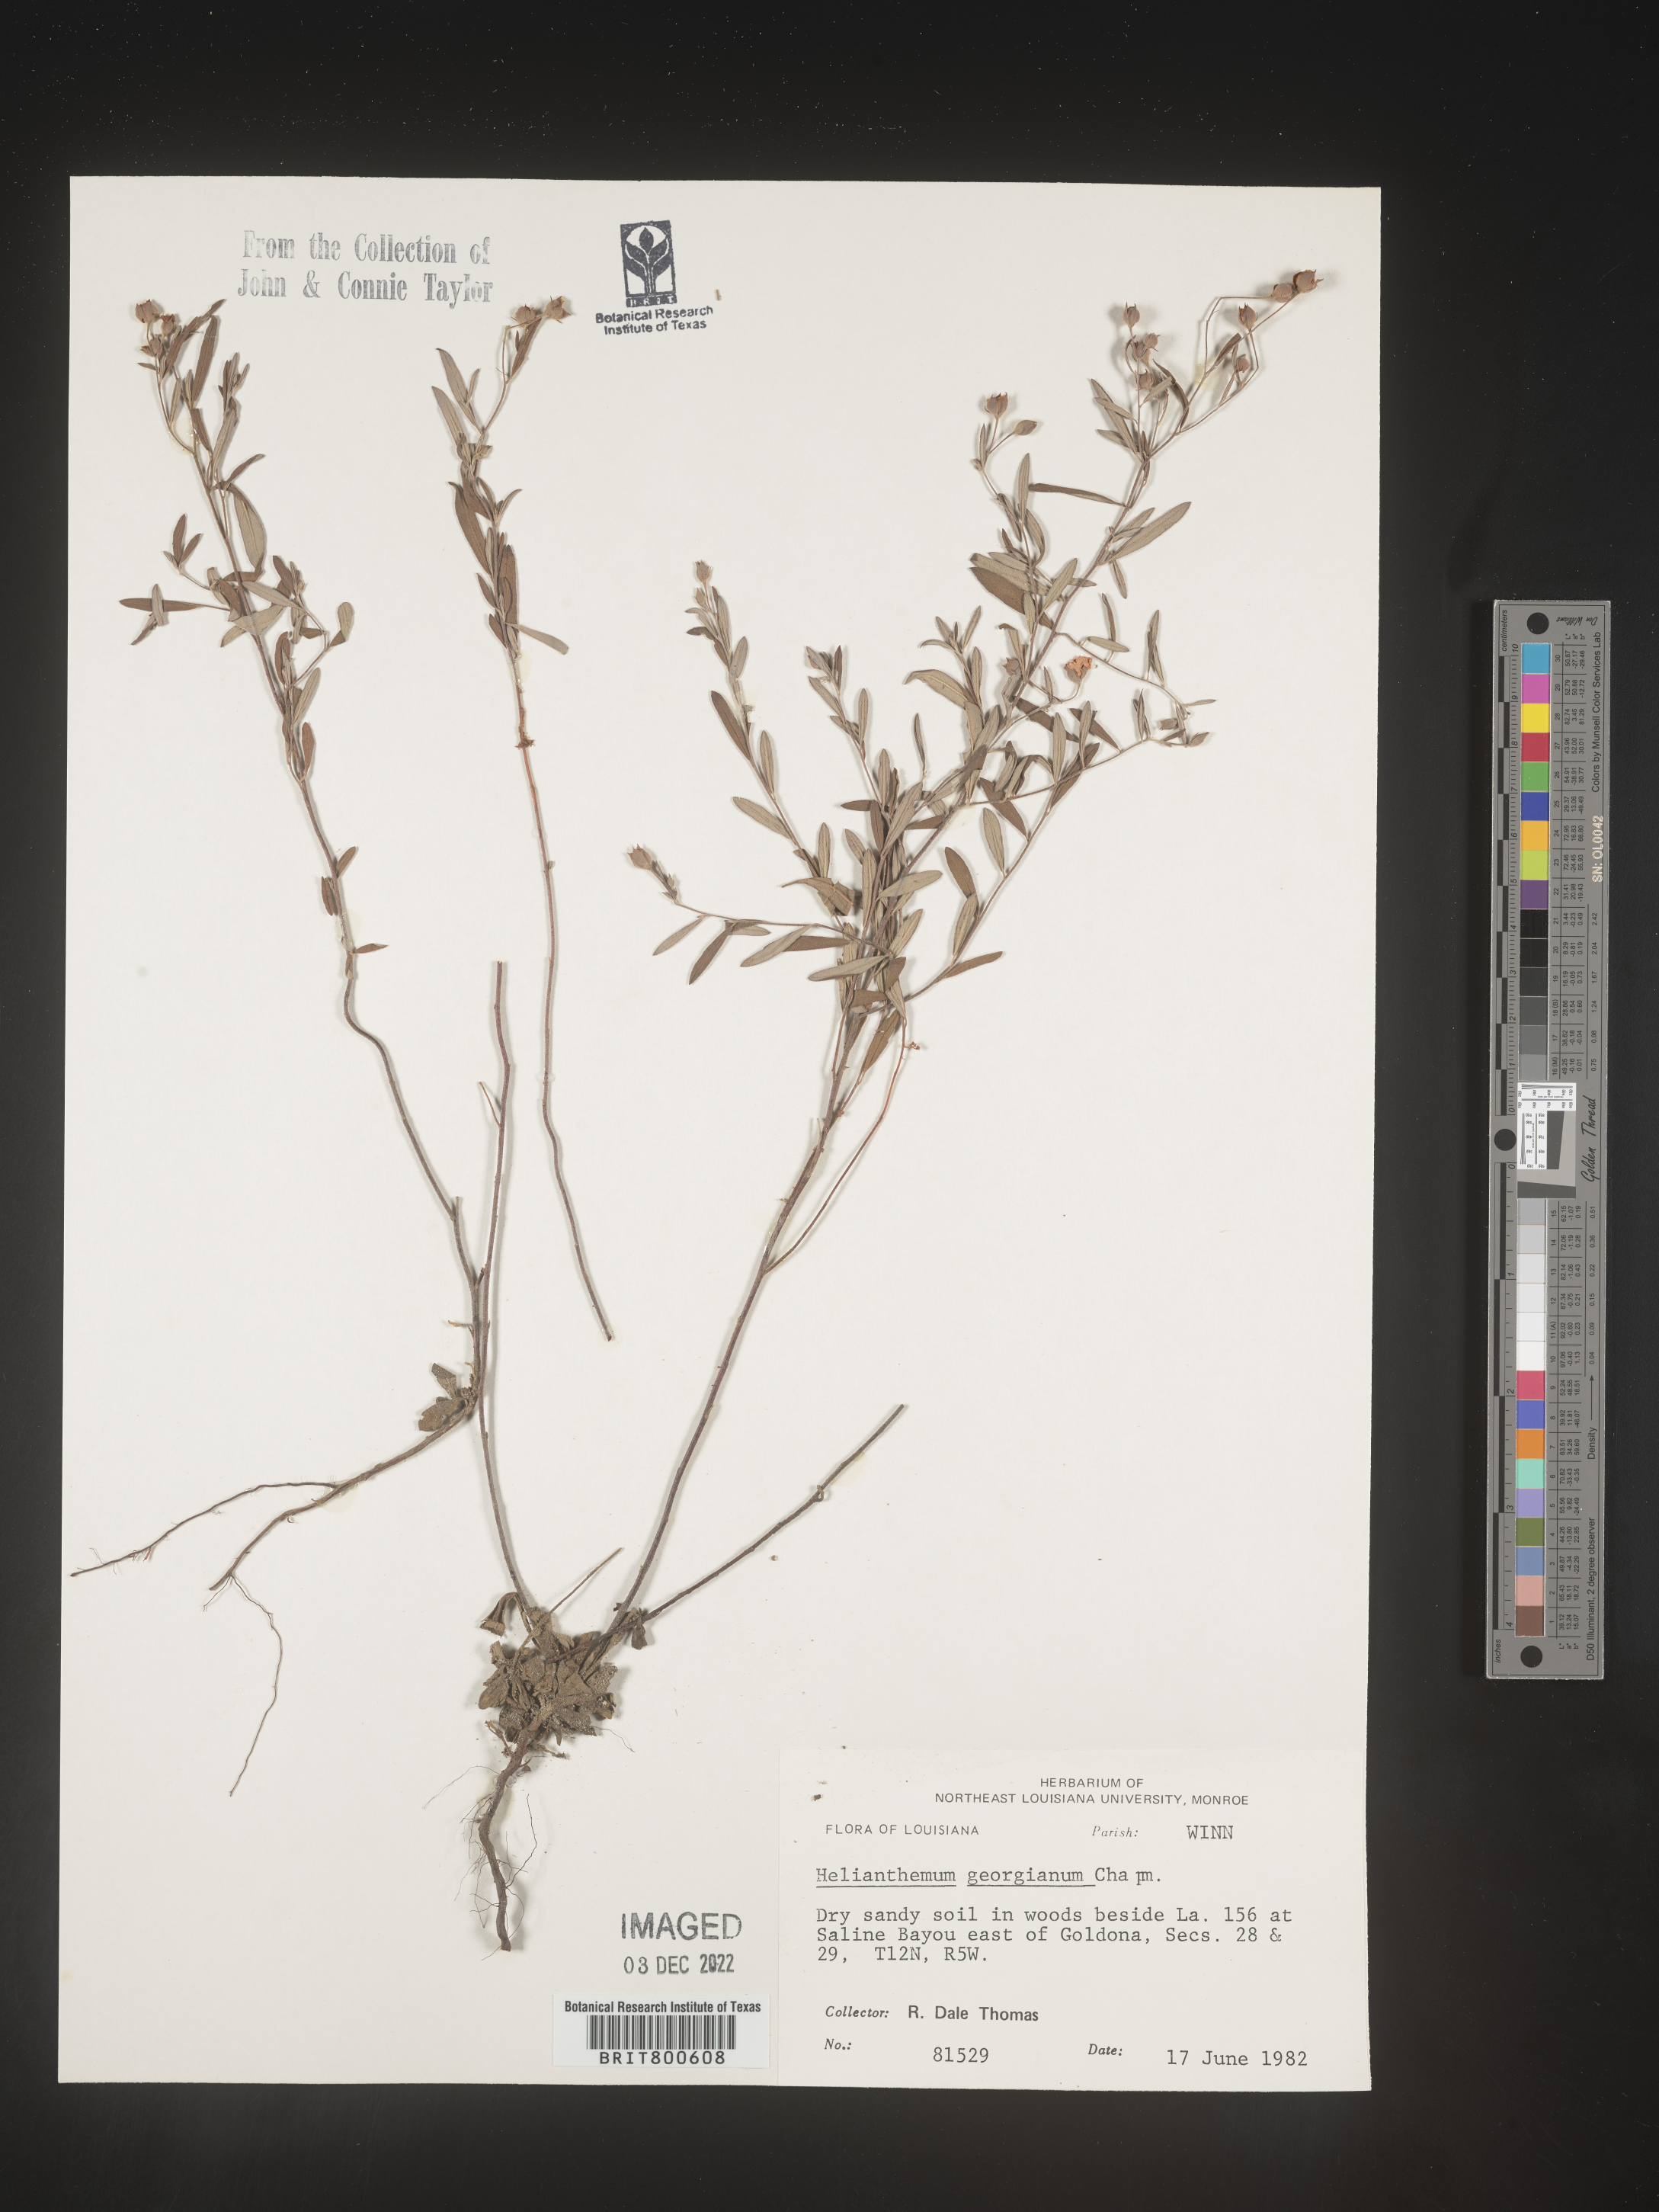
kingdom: Plantae
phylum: Tracheophyta
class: Magnoliopsida
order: Malvales
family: Cistaceae
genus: Crocanthemum
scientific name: Crocanthemum georgianum
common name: Georgia frostweed
